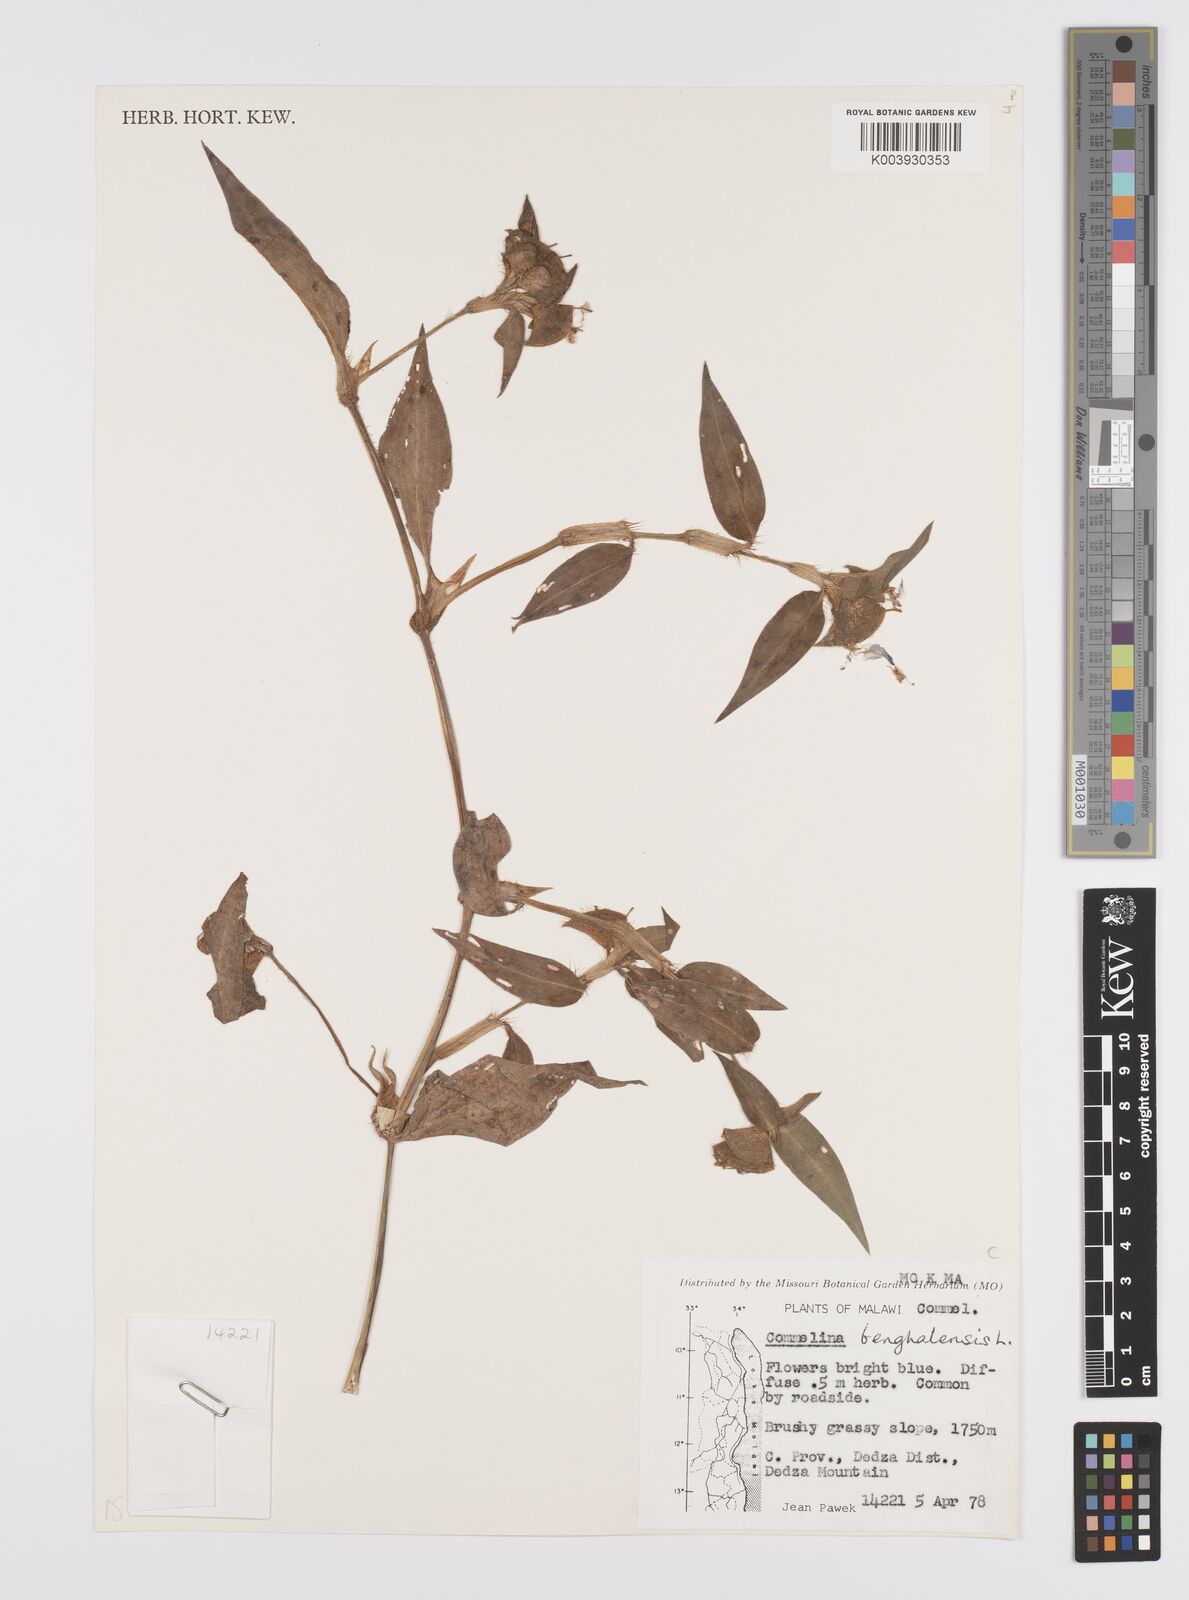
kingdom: Plantae
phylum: Tracheophyta
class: Liliopsida
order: Commelinales
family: Commelinaceae
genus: Commelina
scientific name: Commelina benghalensis
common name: Jio
